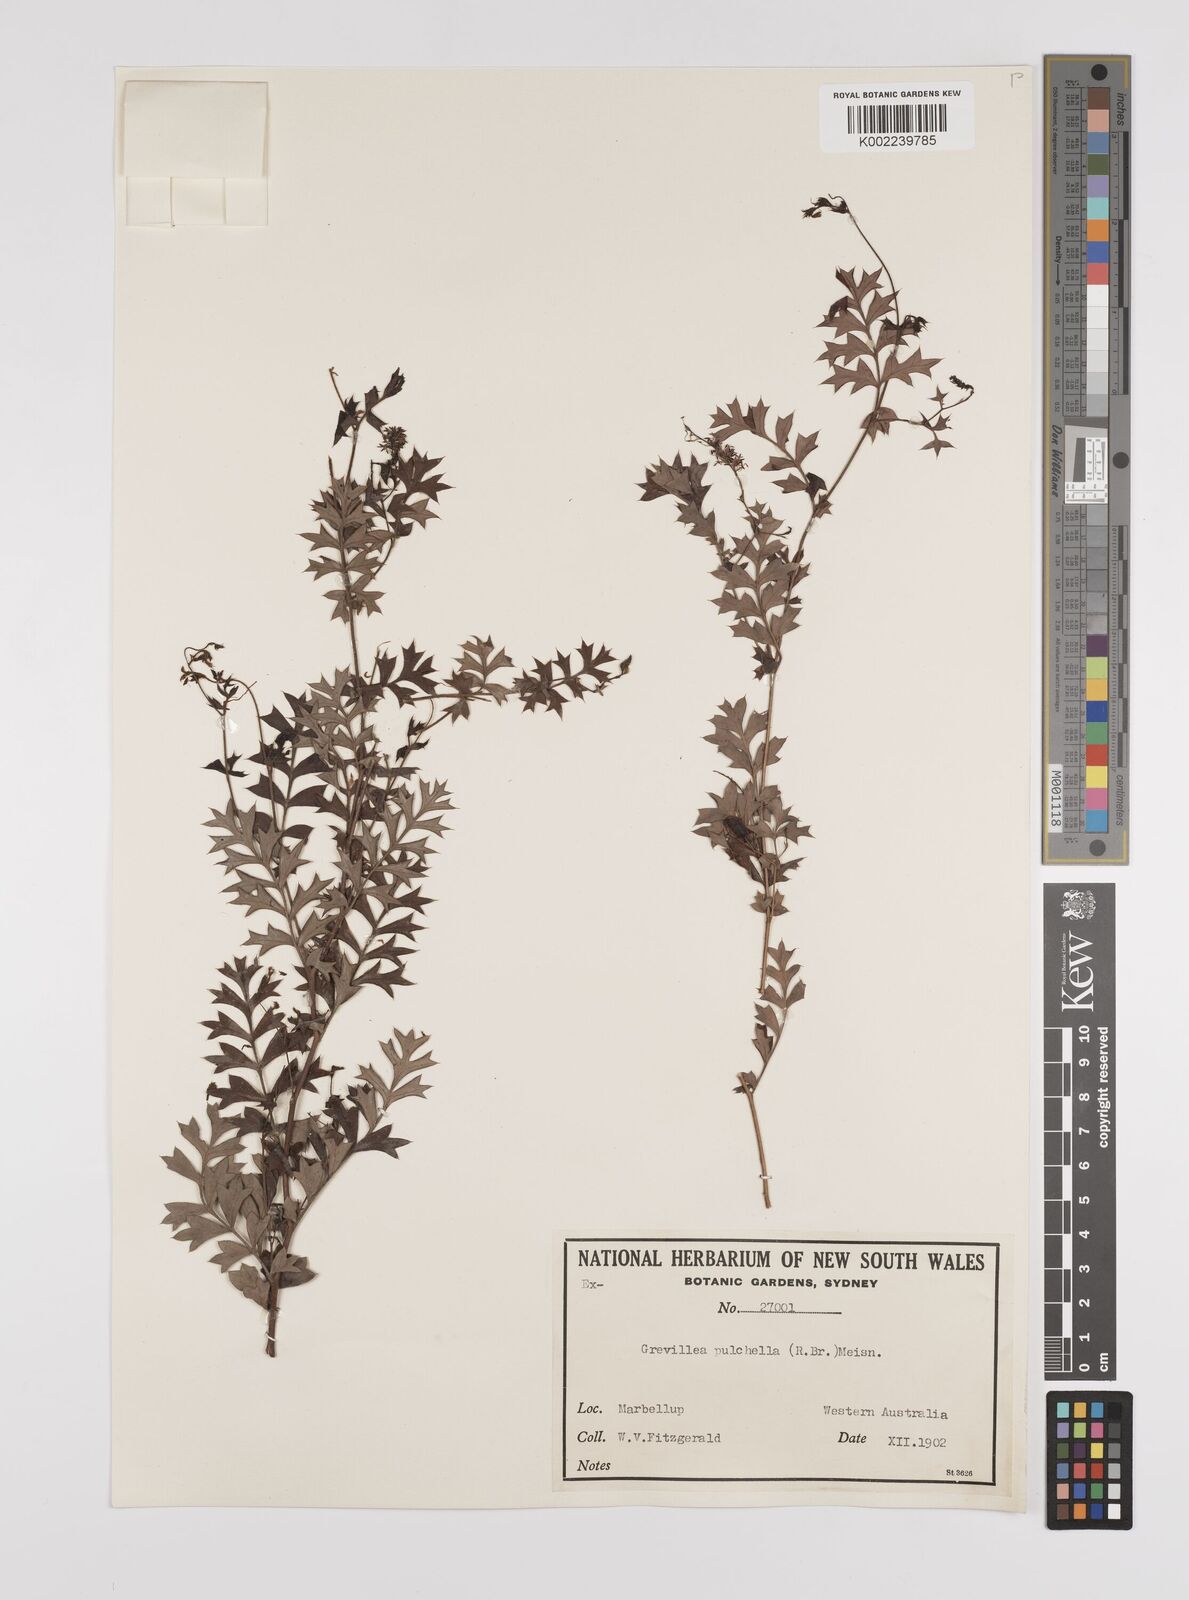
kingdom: Plantae
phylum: Tracheophyta
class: Magnoliopsida
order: Proteales
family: Proteaceae
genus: Grevillea
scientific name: Grevillea pulchella
